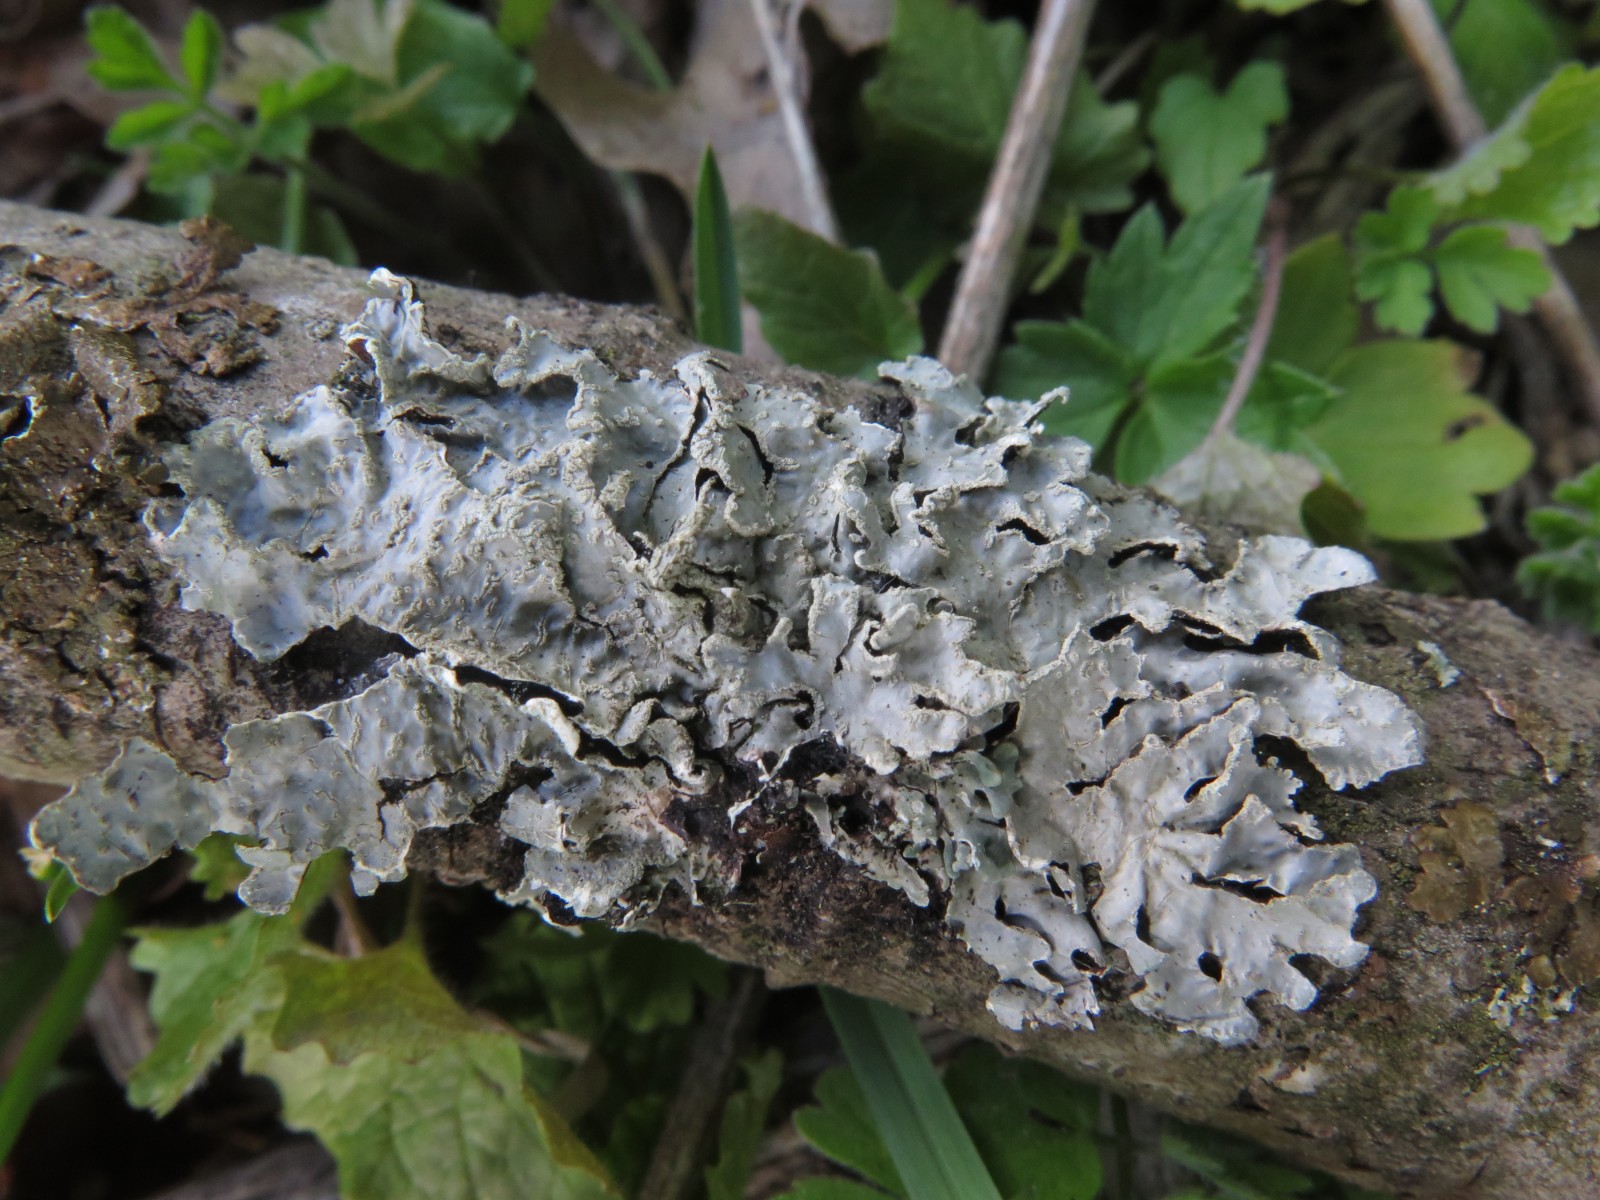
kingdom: Fungi
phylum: Ascomycota
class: Lecanoromycetes
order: Lecanorales
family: Parmeliaceae
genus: Parmelia
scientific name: Parmelia sulcata
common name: rynket skållav
